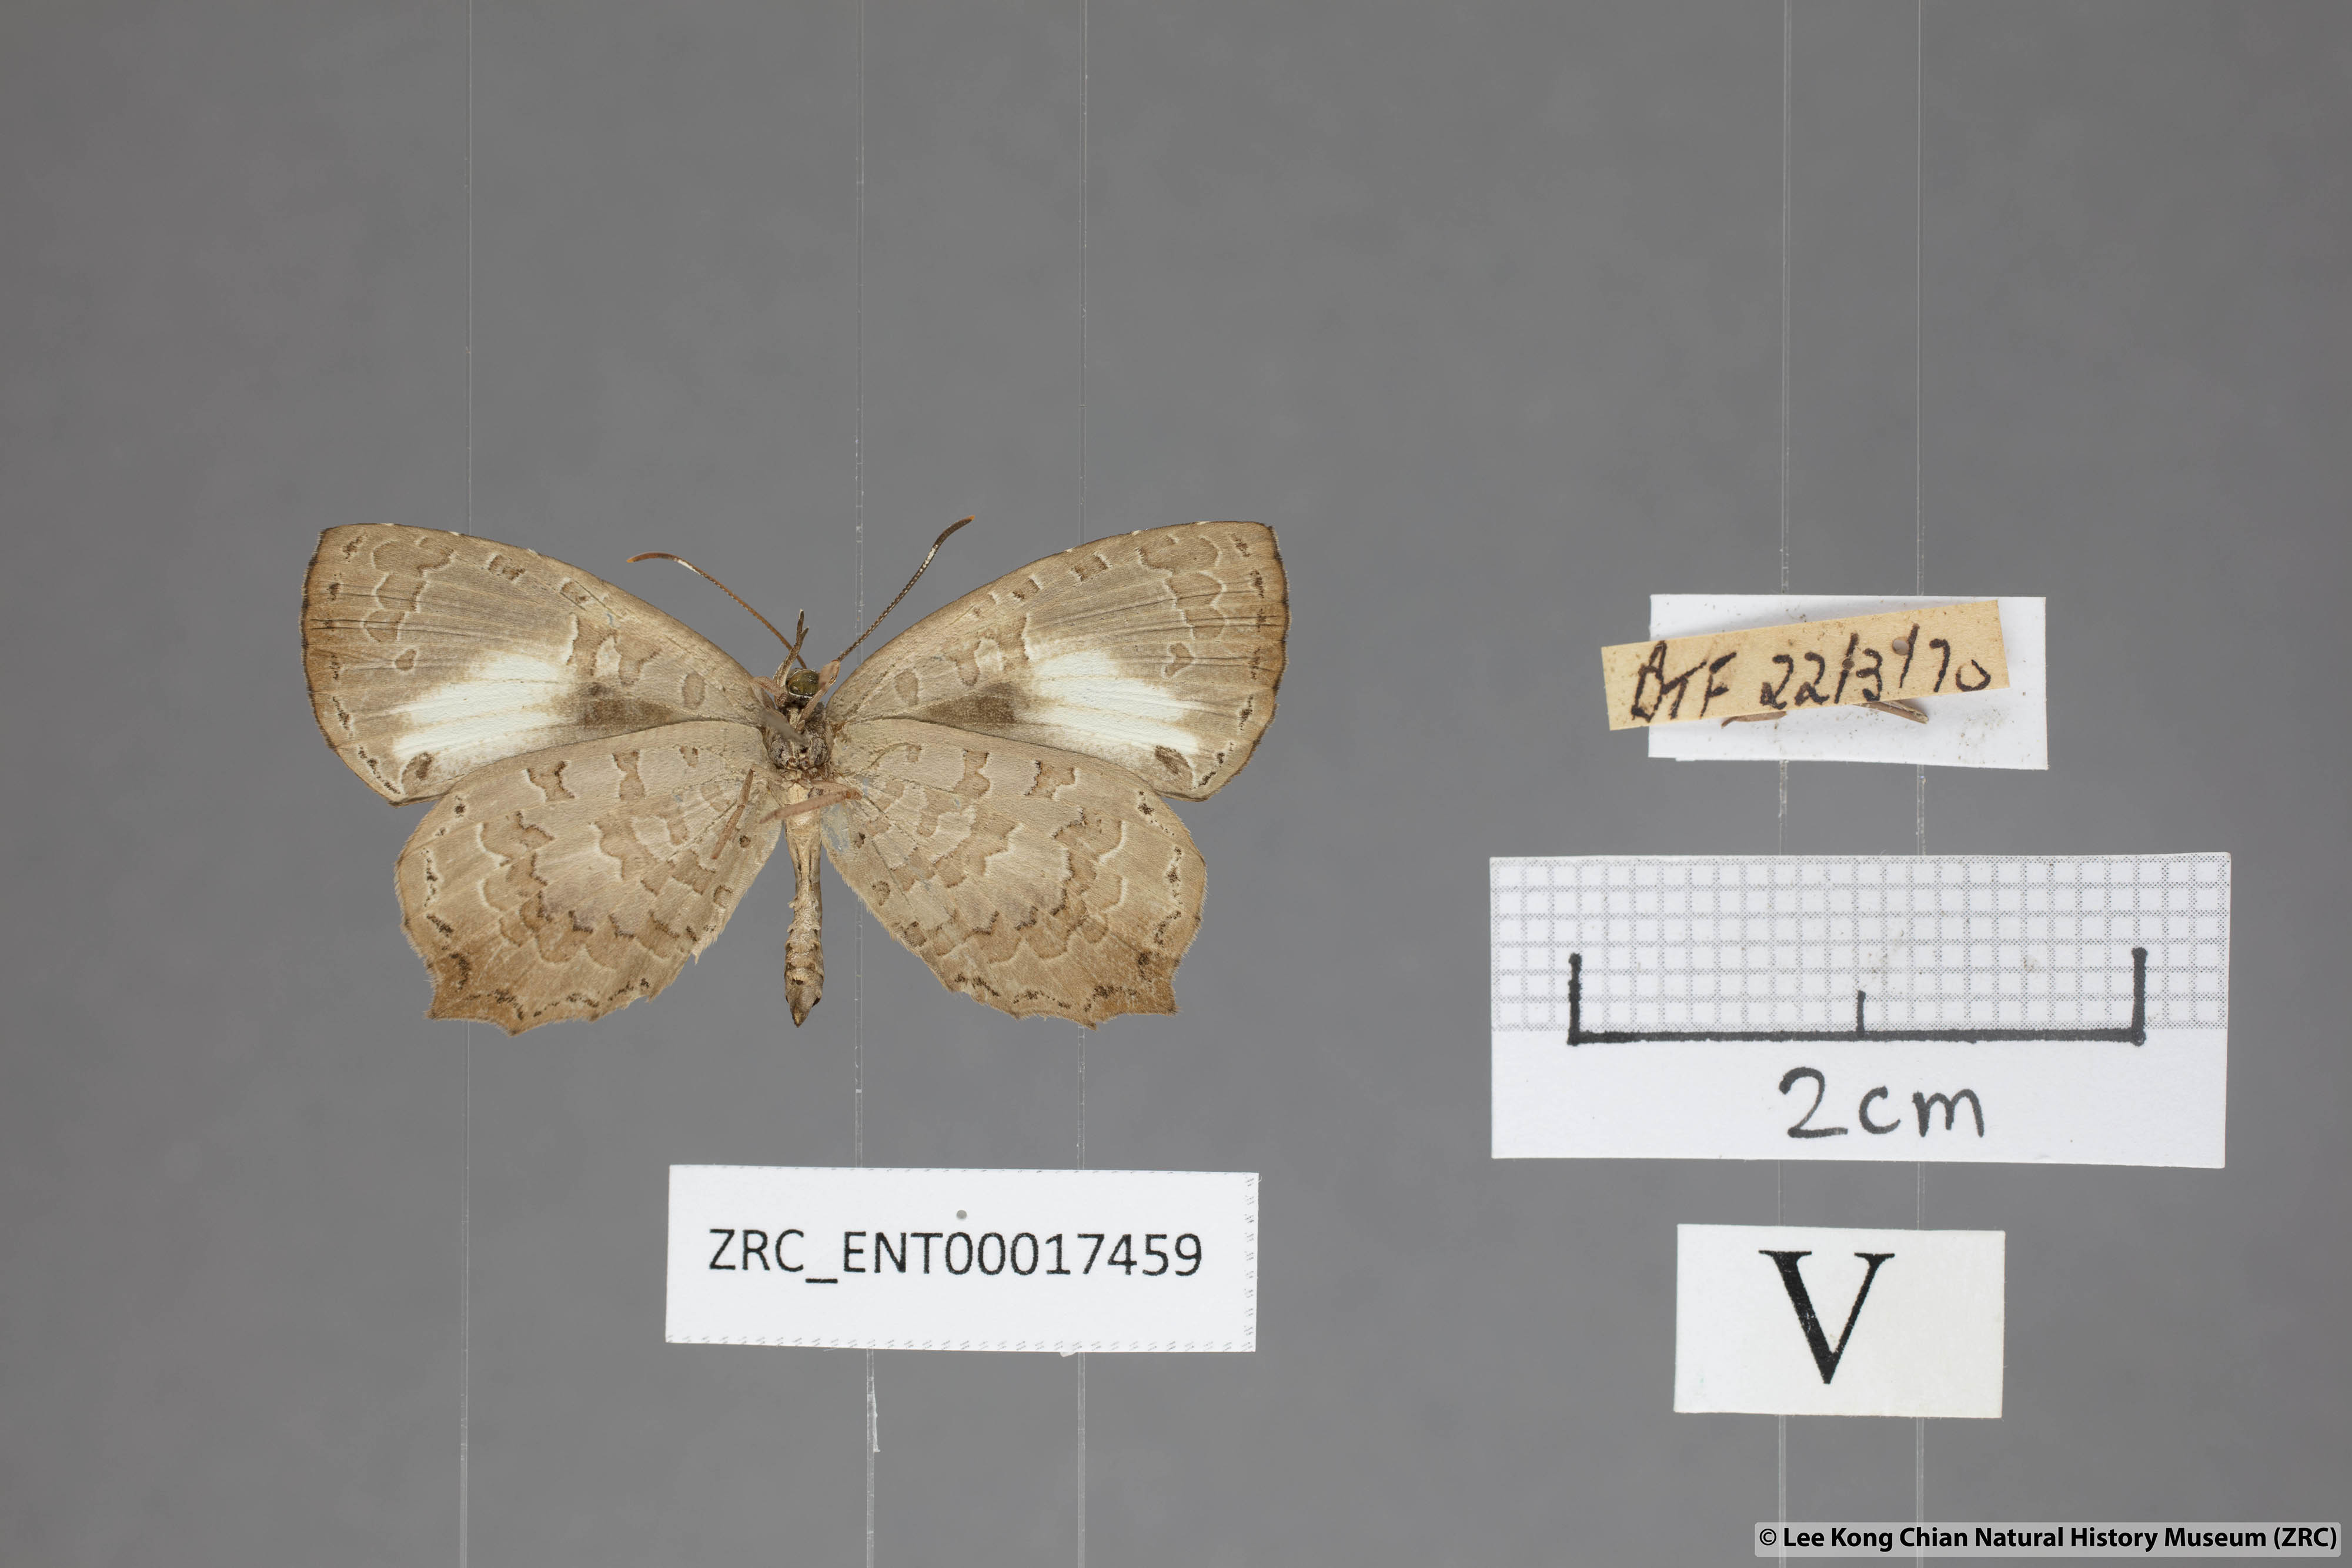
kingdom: Animalia
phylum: Arthropoda
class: Insecta
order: Lepidoptera
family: Lycaenidae
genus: Miletus
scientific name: Miletus gopara
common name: Round-banded brownie
